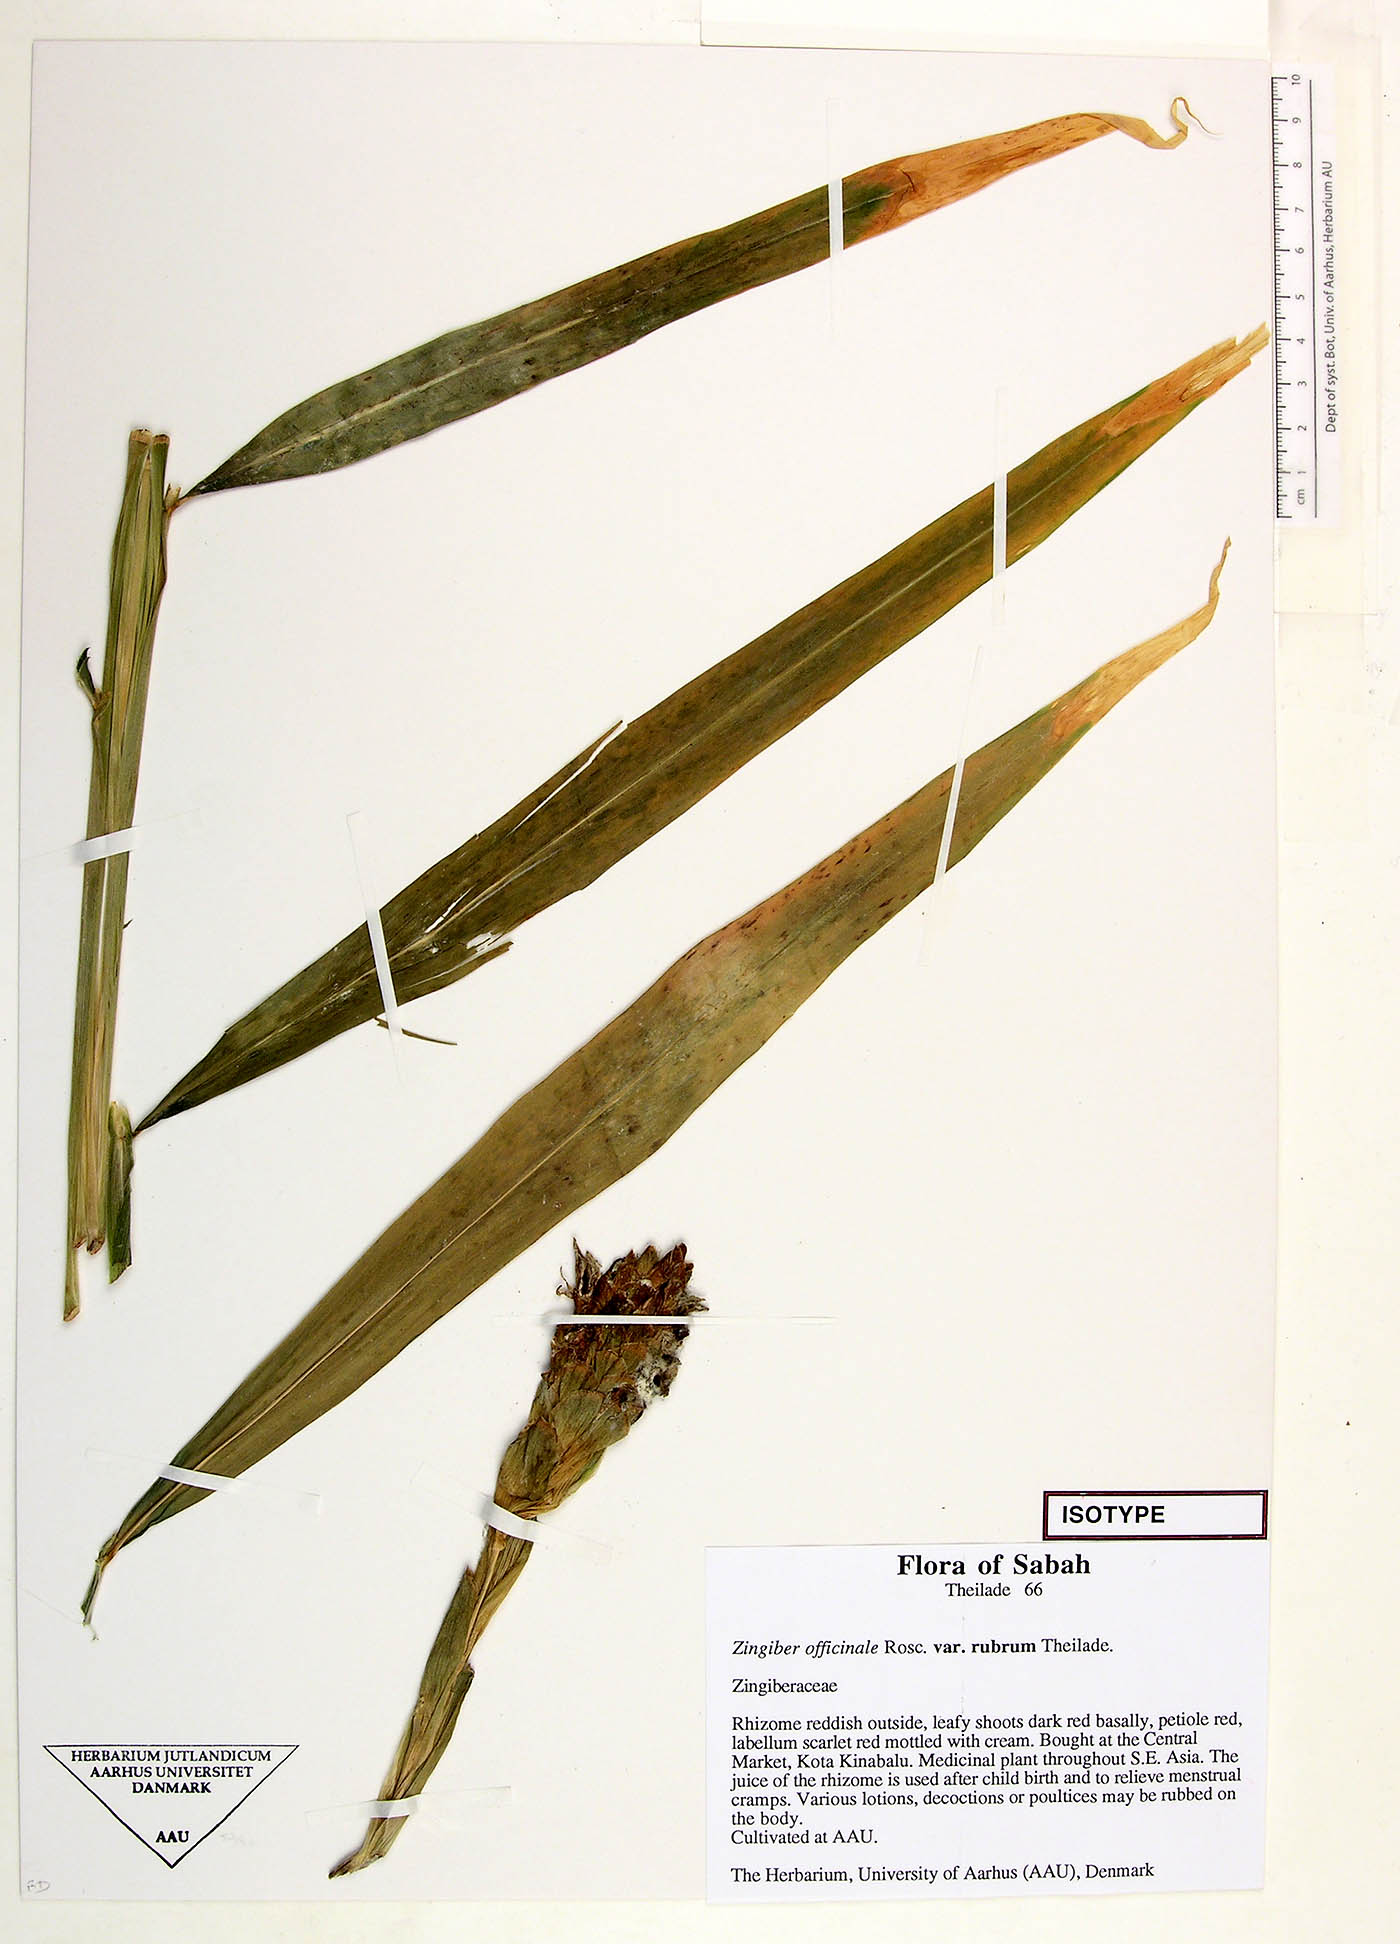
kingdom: Plantae
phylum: Tracheophyta
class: Liliopsida
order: Zingiberales
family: Zingiberaceae
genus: Zingiber
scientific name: Zingiber officinale
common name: Ginger
